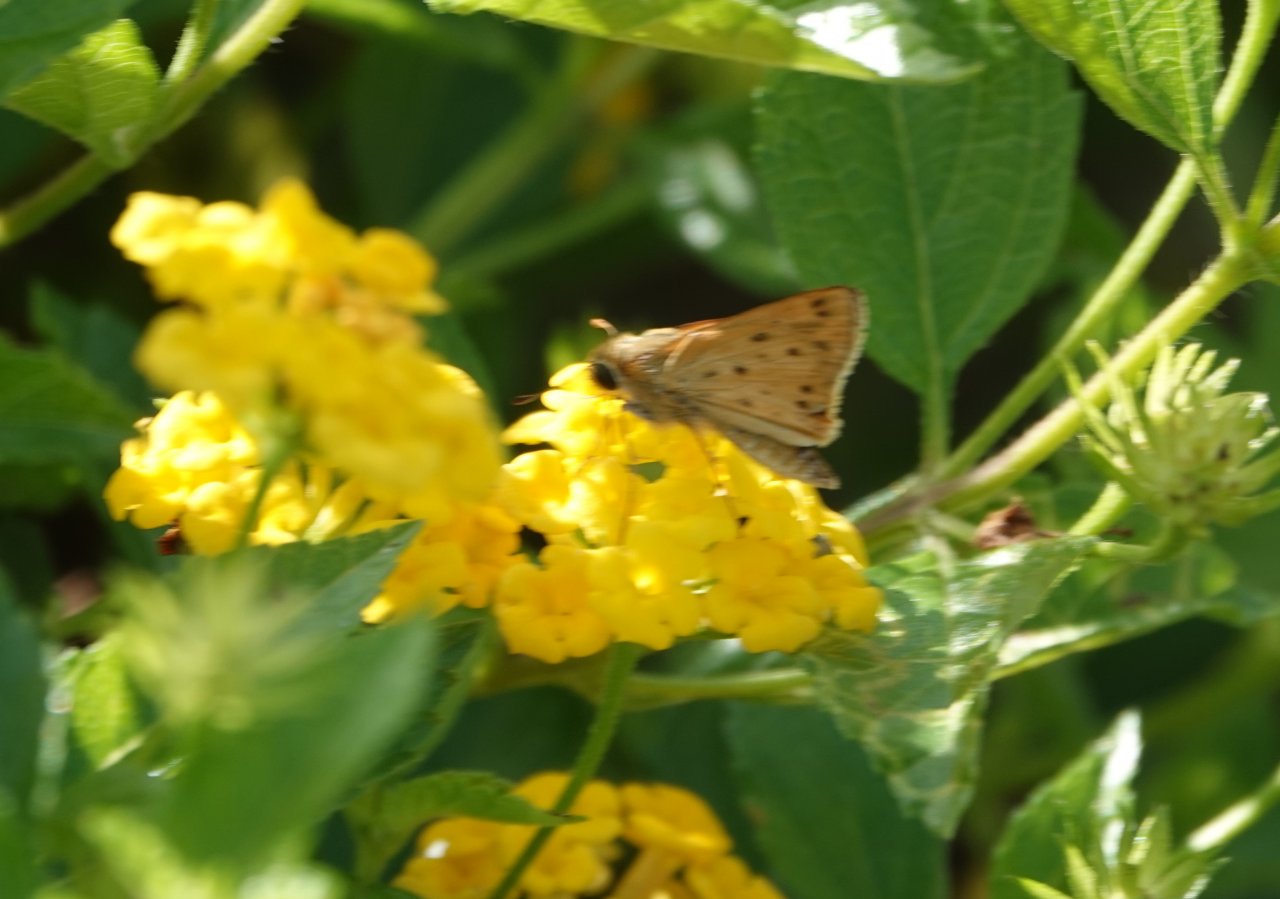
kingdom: Animalia
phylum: Arthropoda
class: Insecta
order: Lepidoptera
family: Hesperiidae
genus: Hylephila
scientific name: Hylephila phyleus
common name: Fiery Skipper
